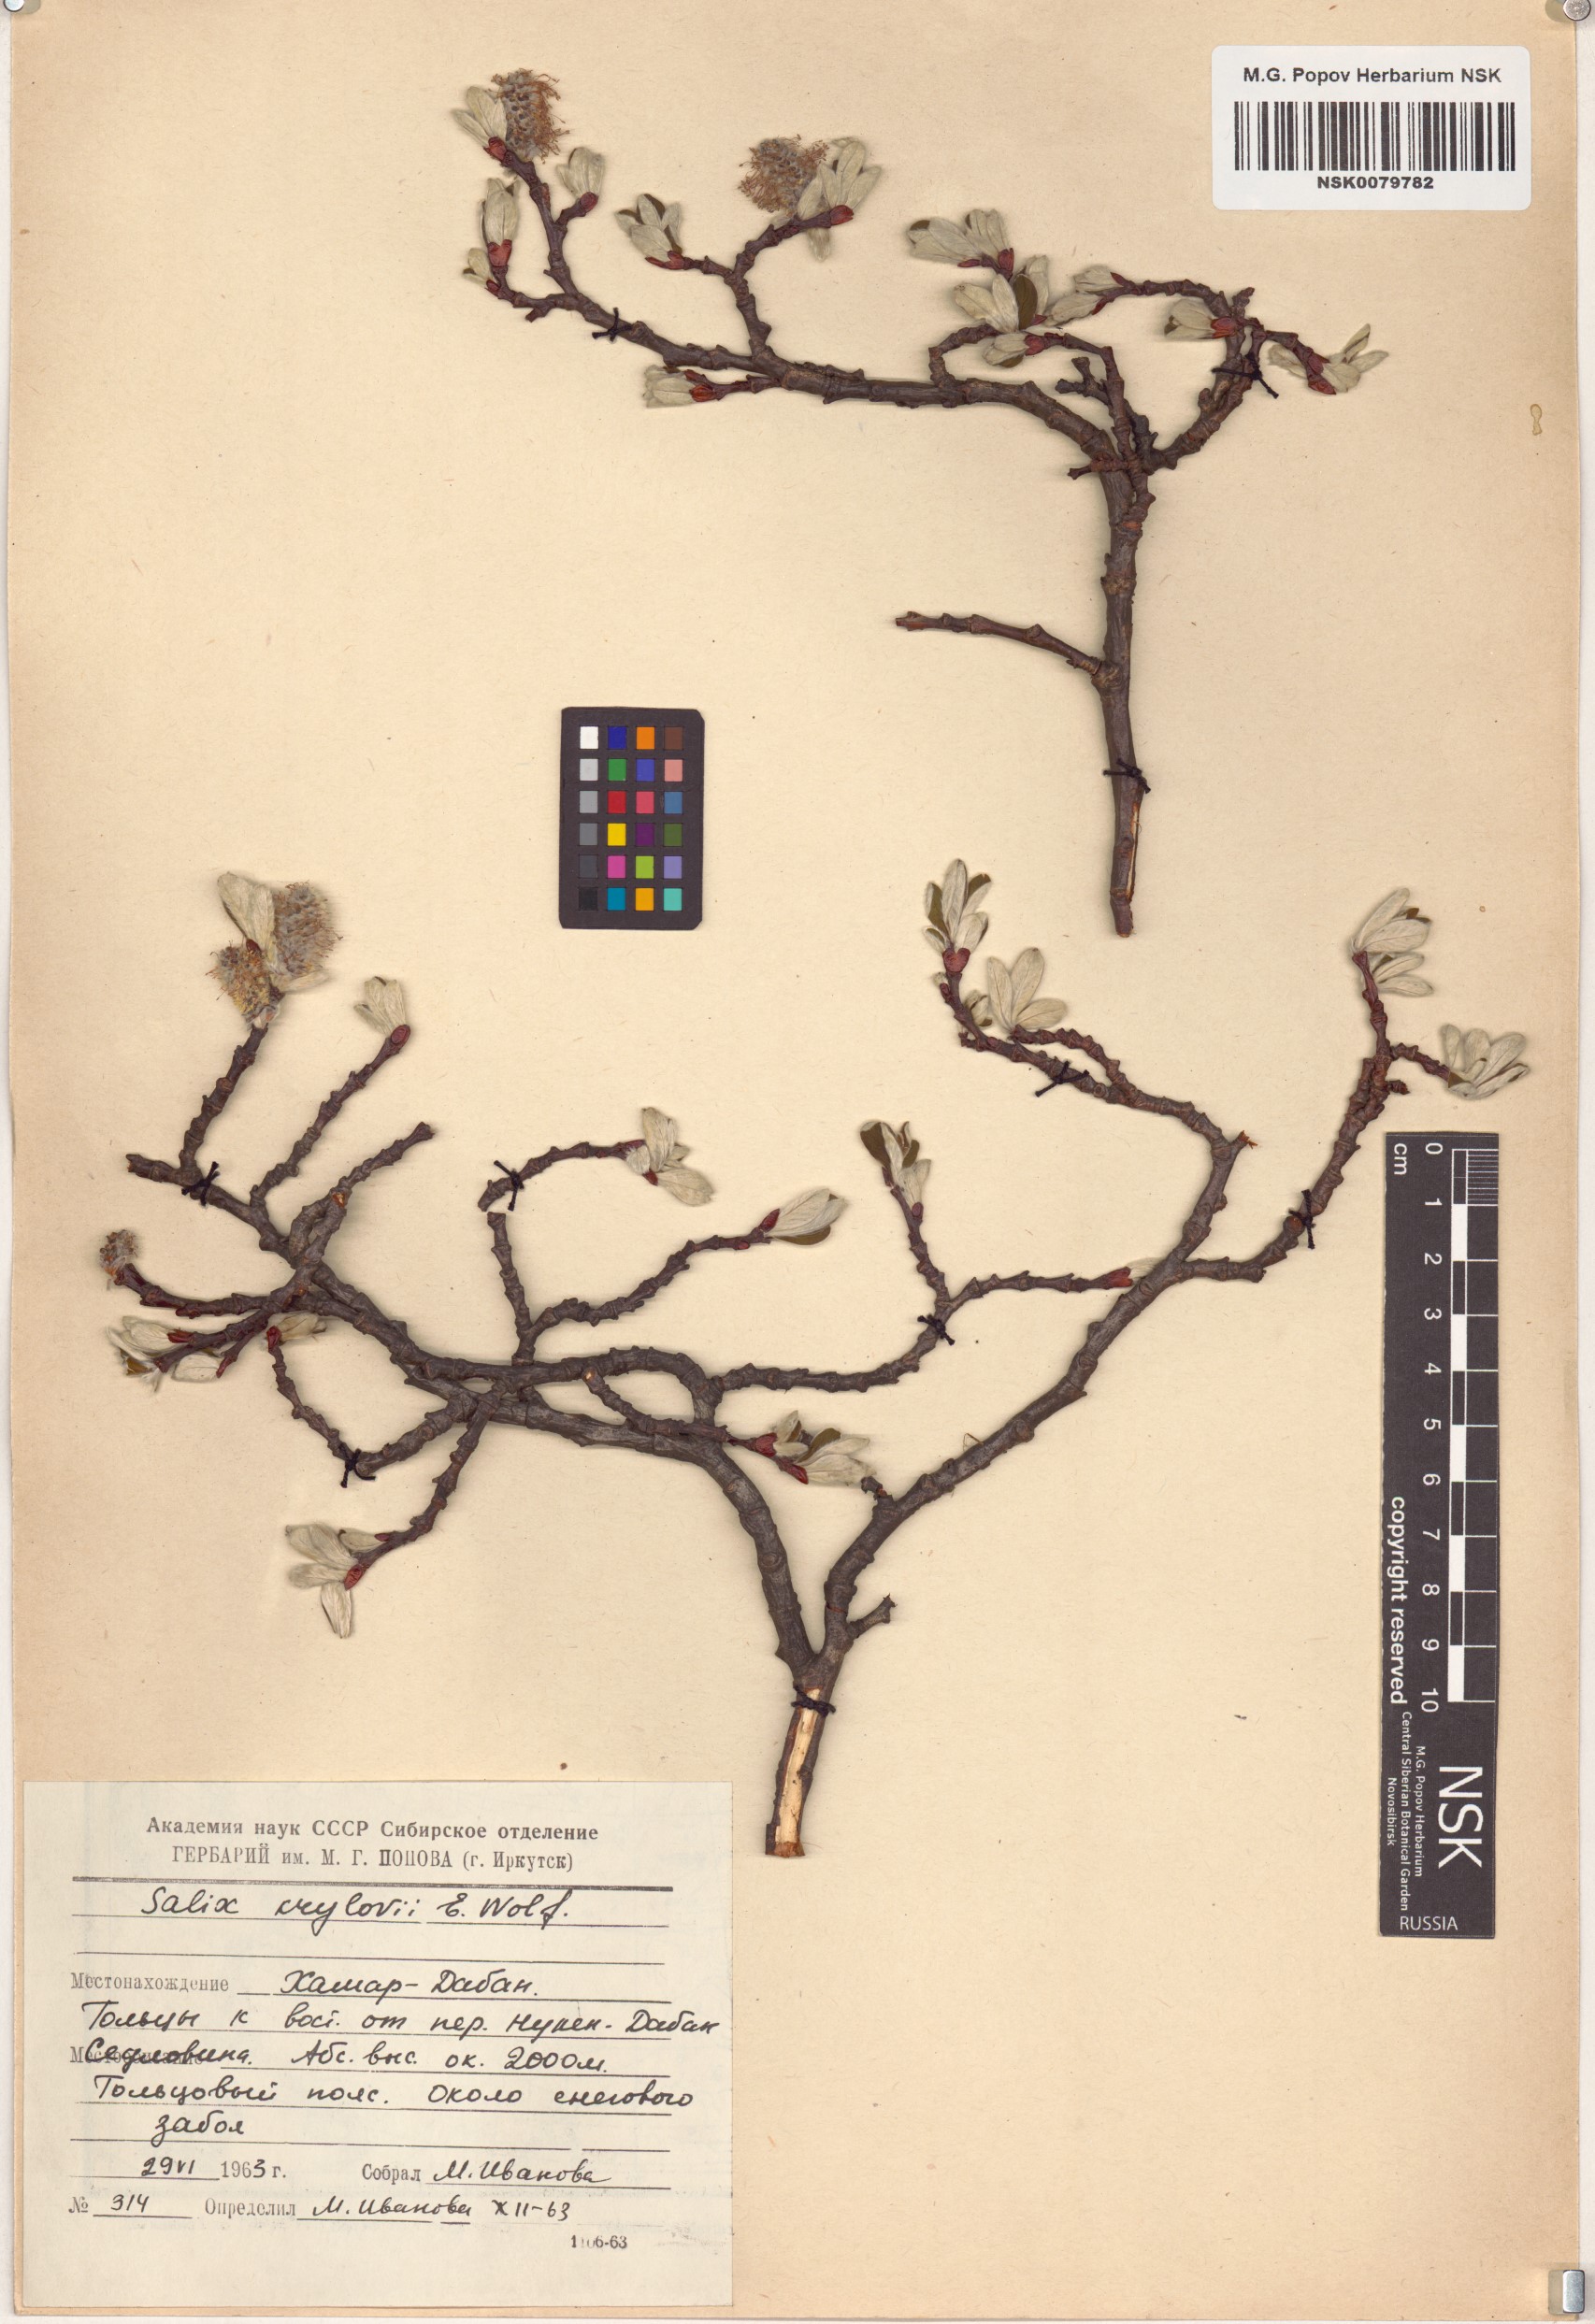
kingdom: Plantae
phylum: Tracheophyta
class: Magnoliopsida
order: Malpighiales
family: Salicaceae
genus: Salix
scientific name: Salix krylovii
